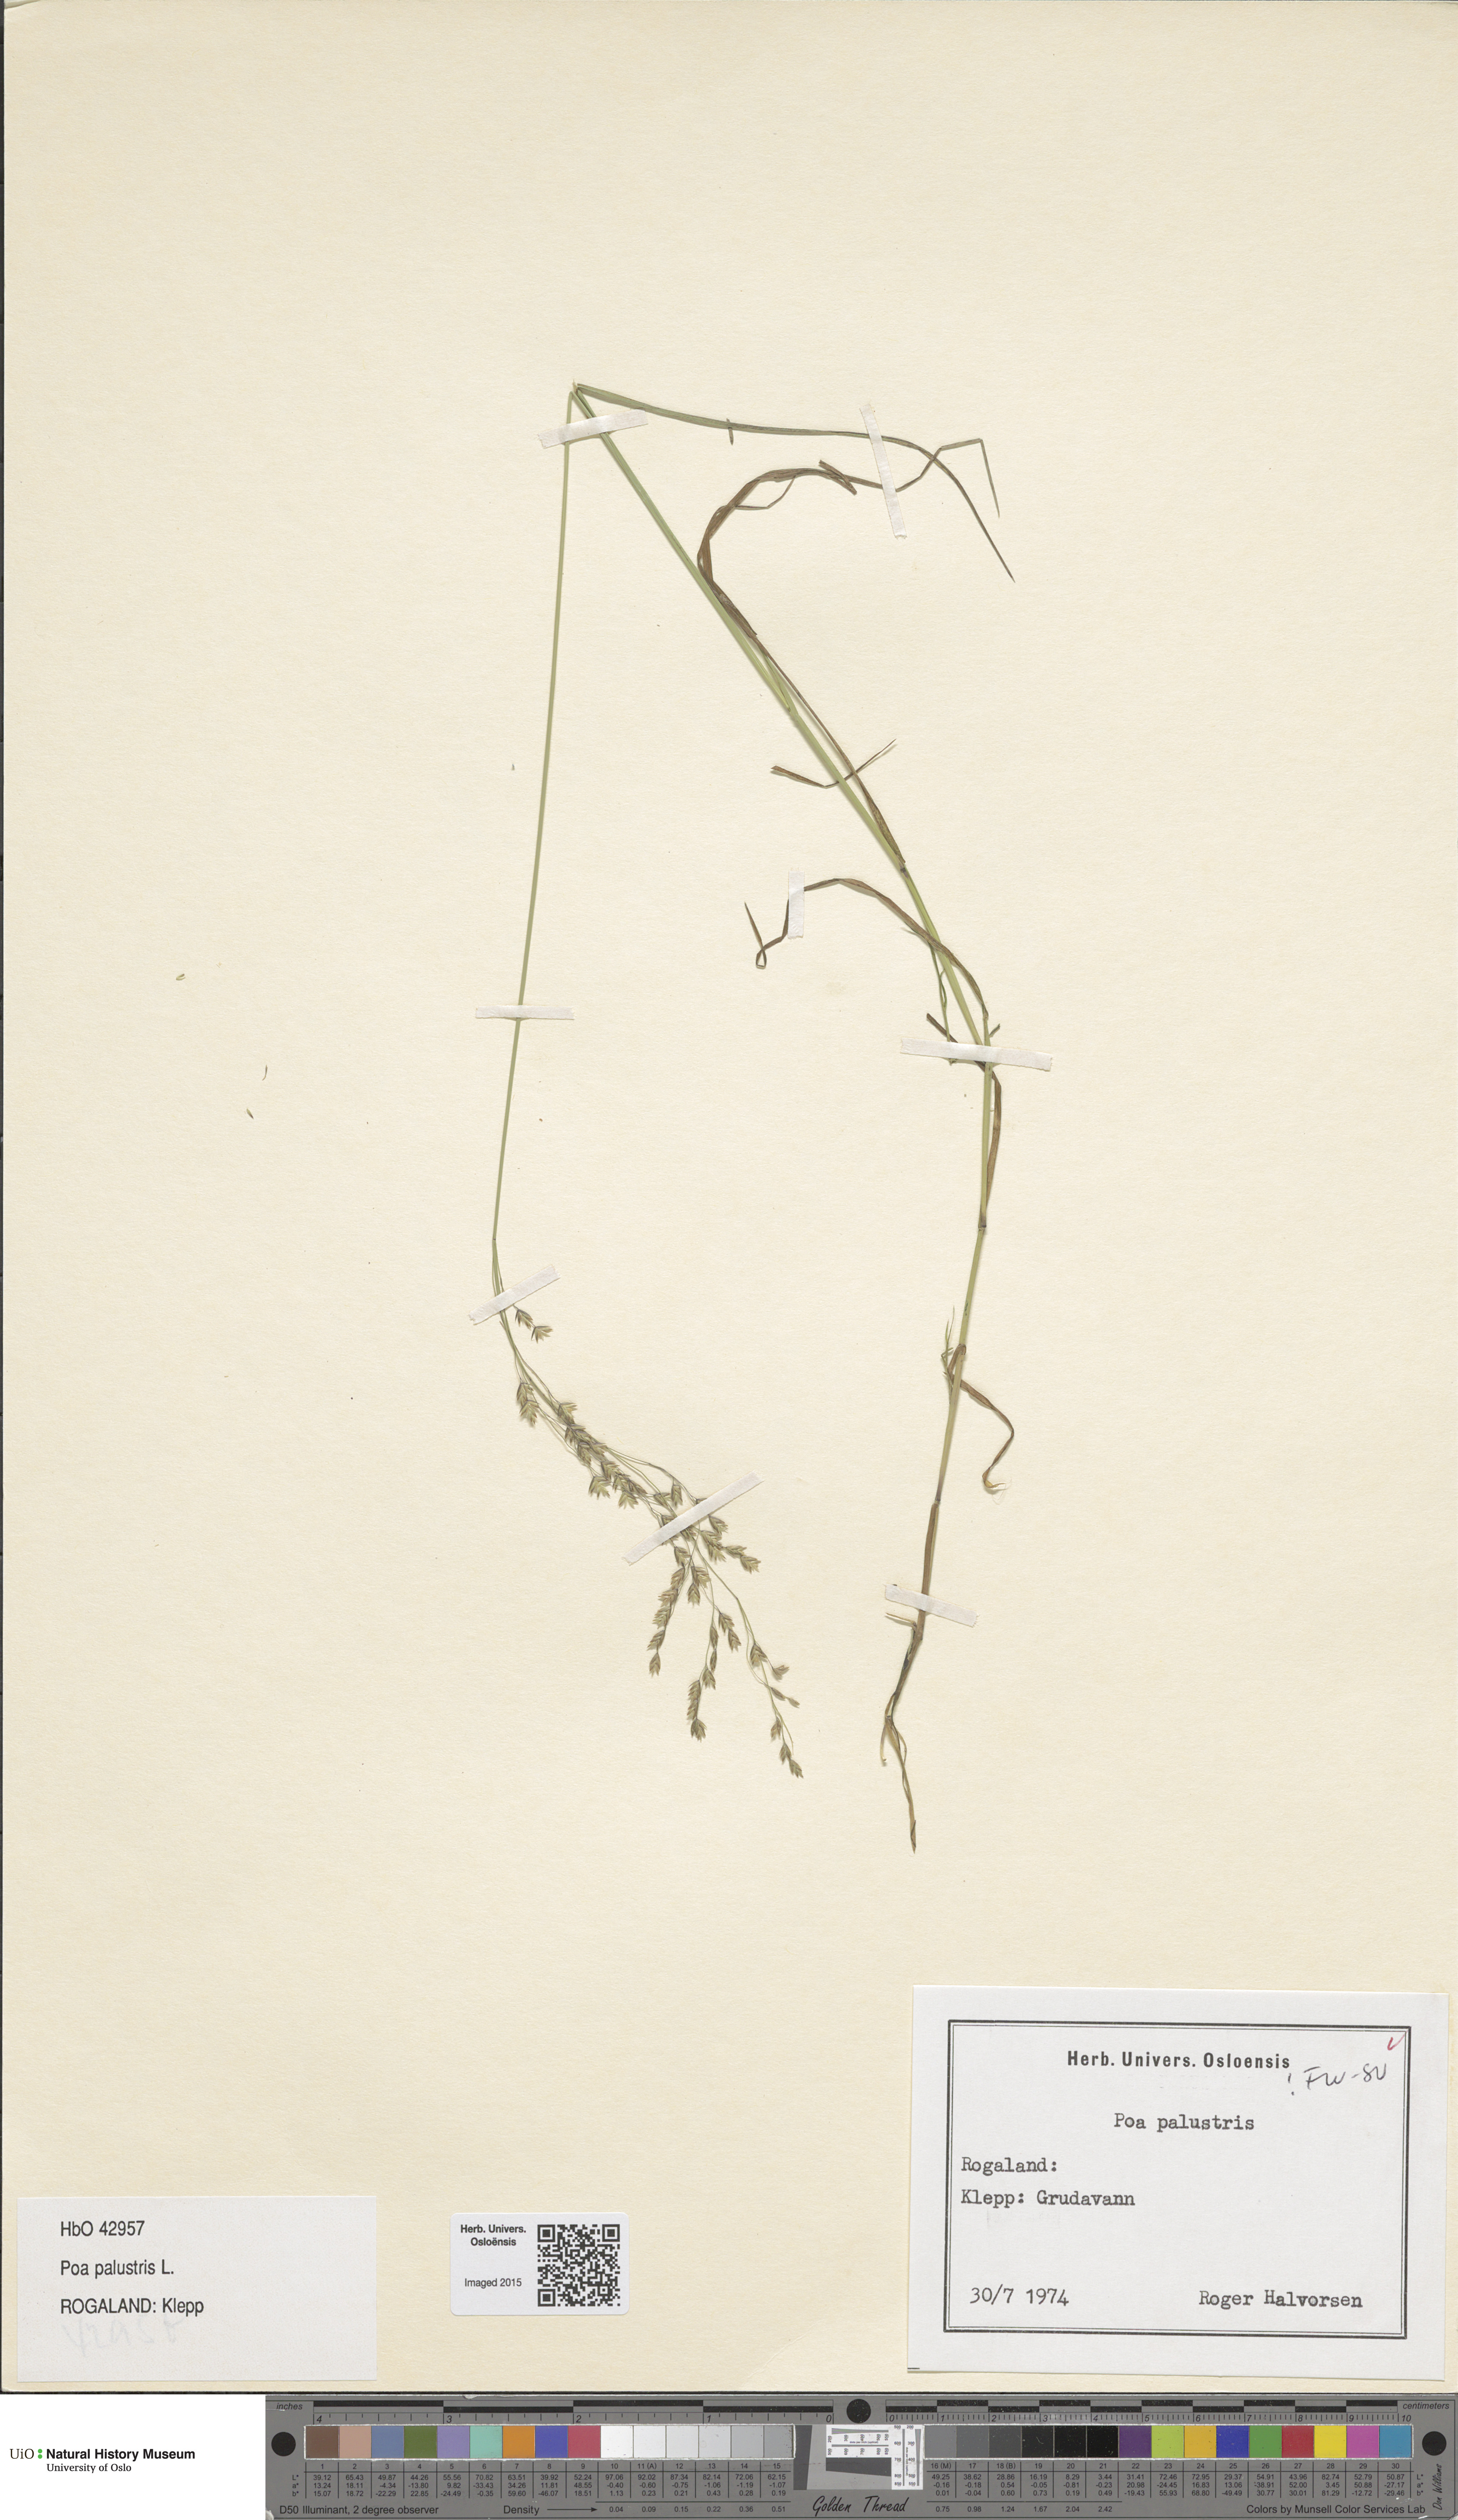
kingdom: Plantae
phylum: Tracheophyta
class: Liliopsida
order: Poales
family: Poaceae
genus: Poa
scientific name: Poa palustris
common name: Swamp meadow-grass
